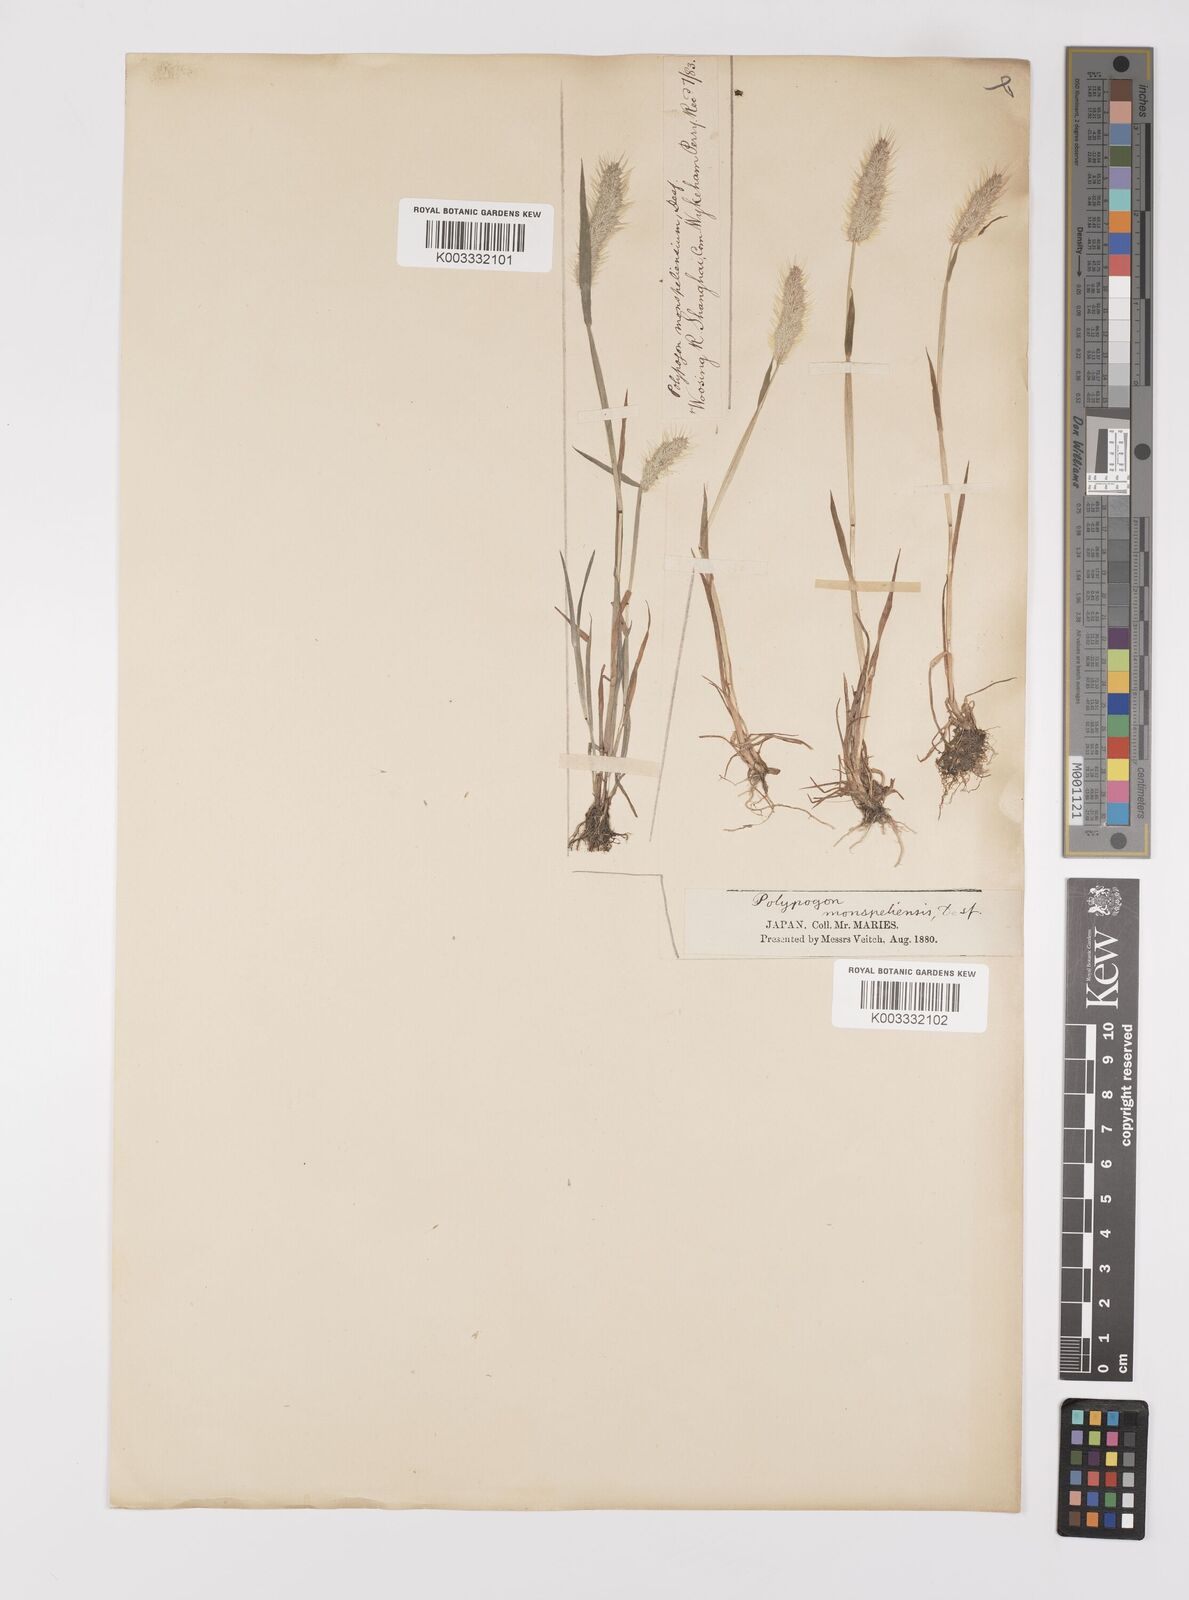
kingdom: Plantae
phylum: Tracheophyta
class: Liliopsida
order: Poales
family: Poaceae
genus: Polypogon
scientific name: Polypogon monspeliensis
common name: Annual rabbitsfoot grass
